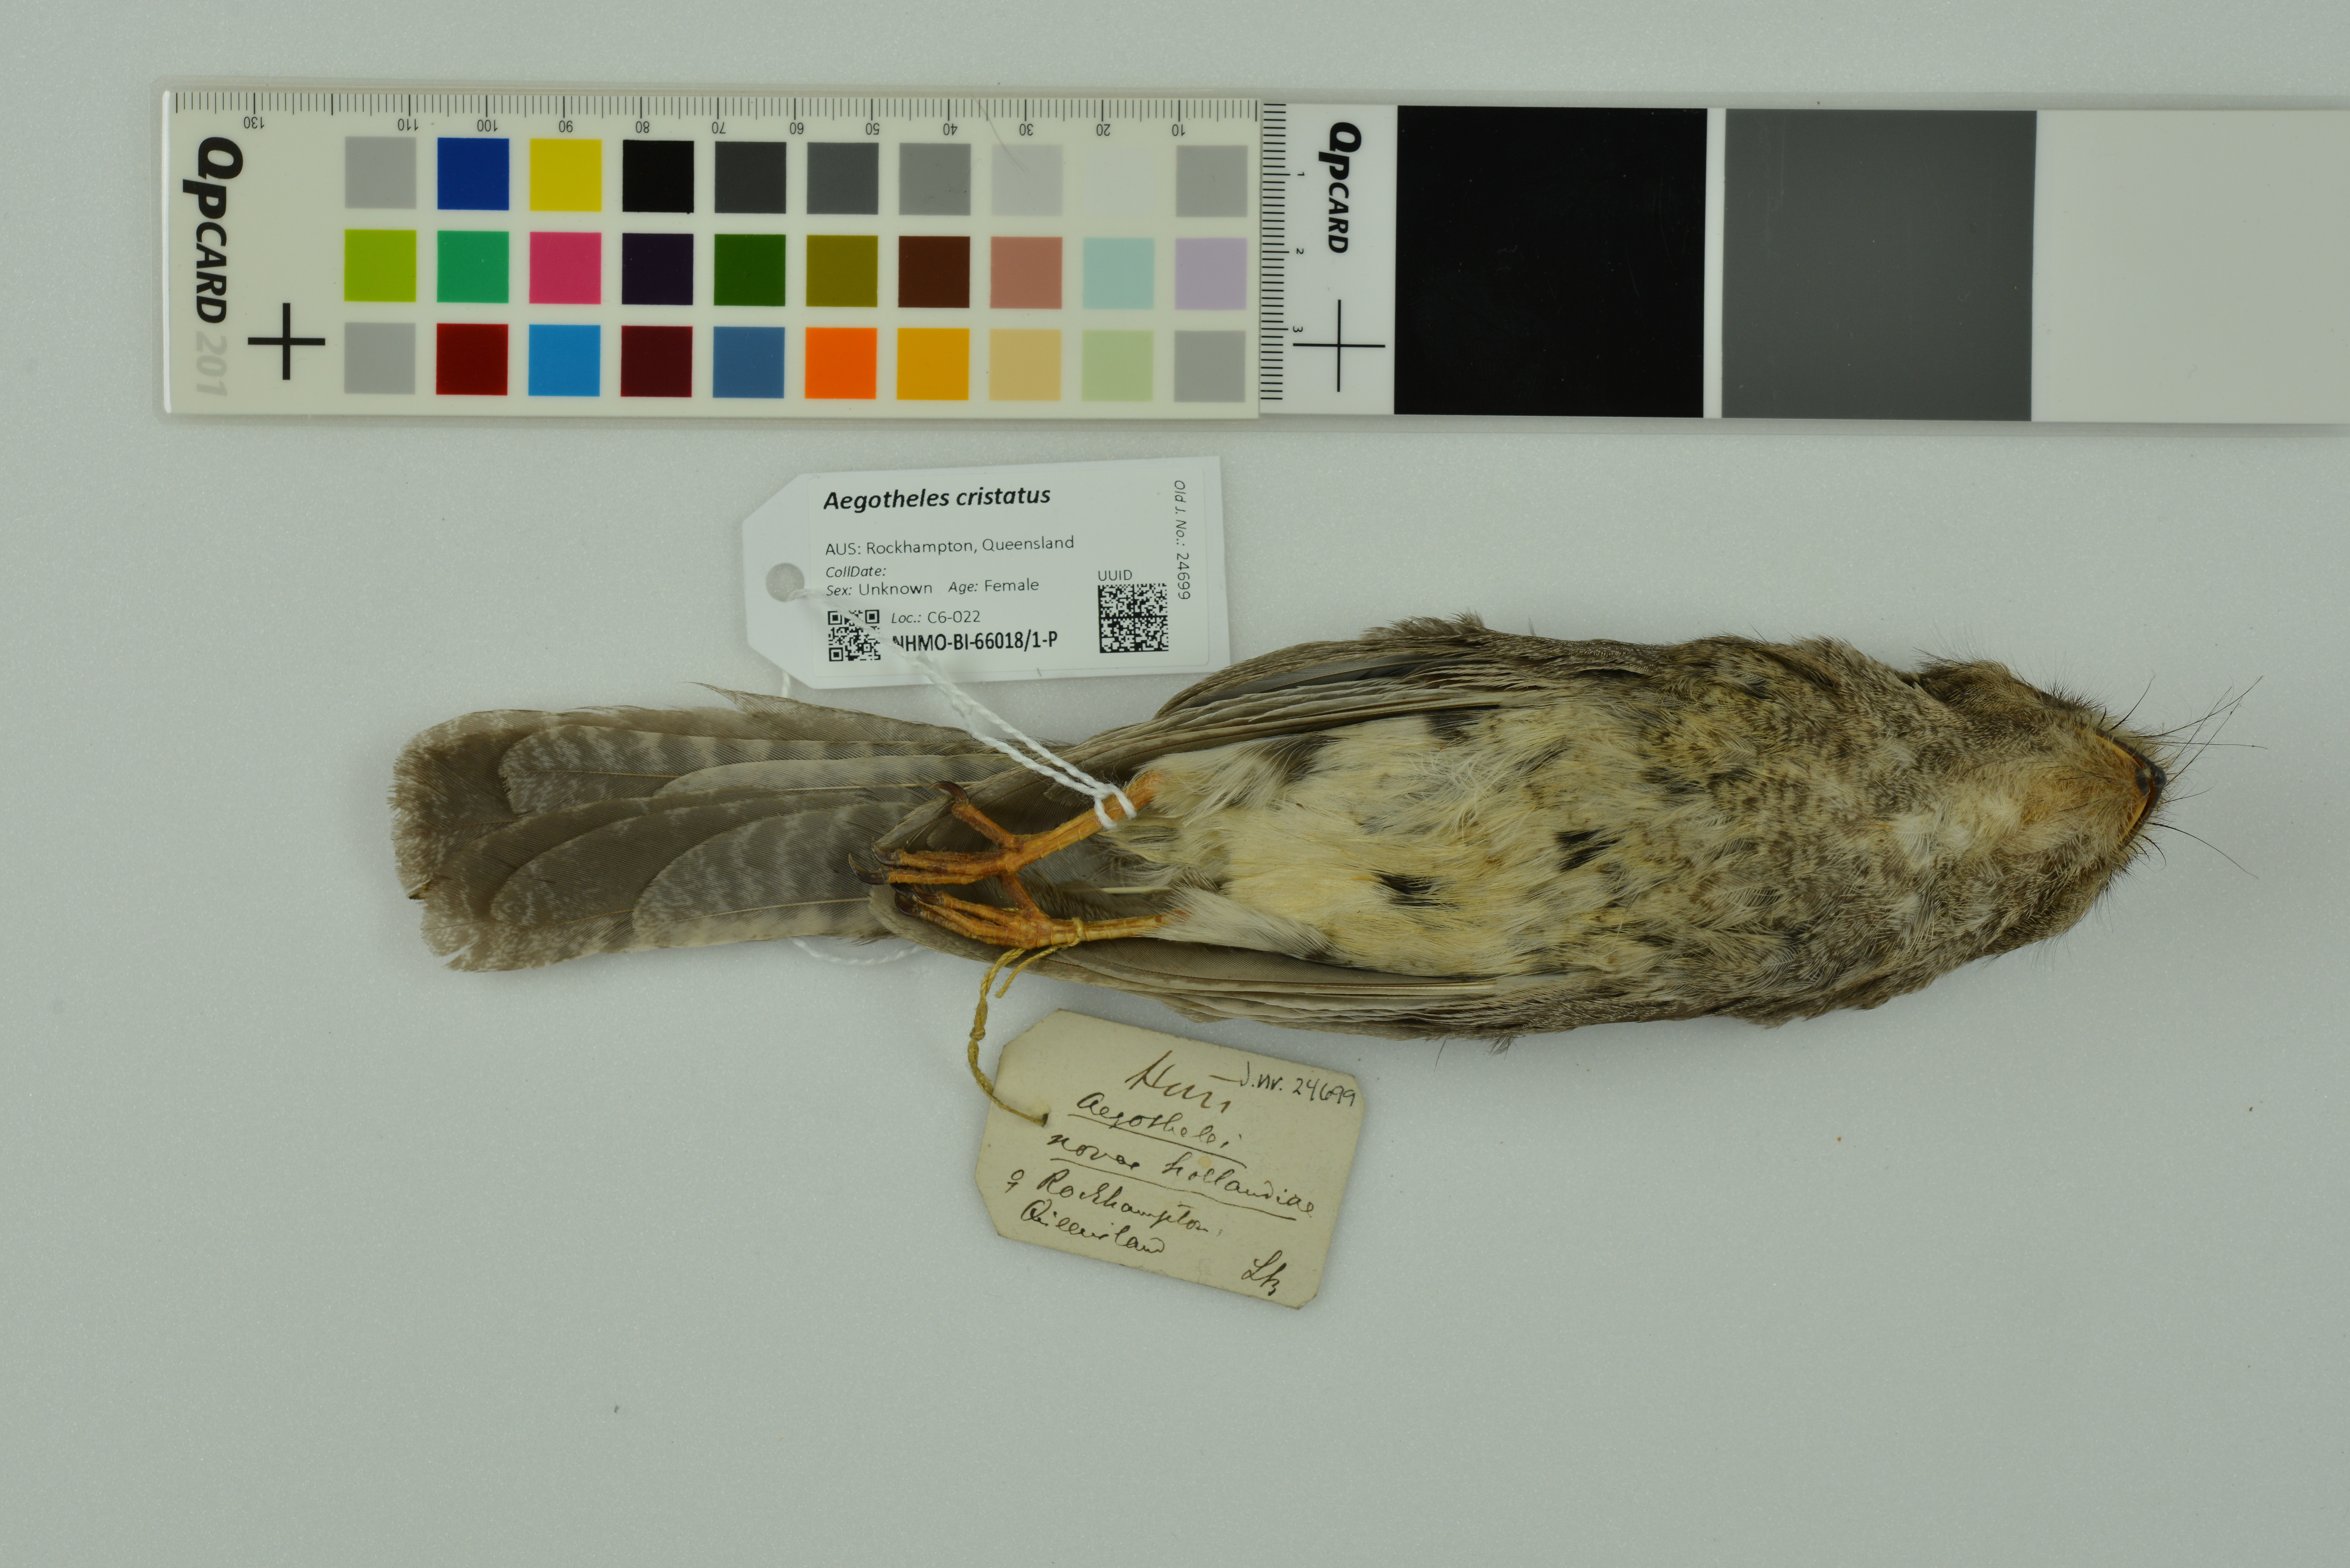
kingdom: Animalia
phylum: Chordata
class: Aves
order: Apodiformes
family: Aegothelidae
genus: Aegotheles
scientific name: Aegotheles cristatus
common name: Australian owlet-nightjar
